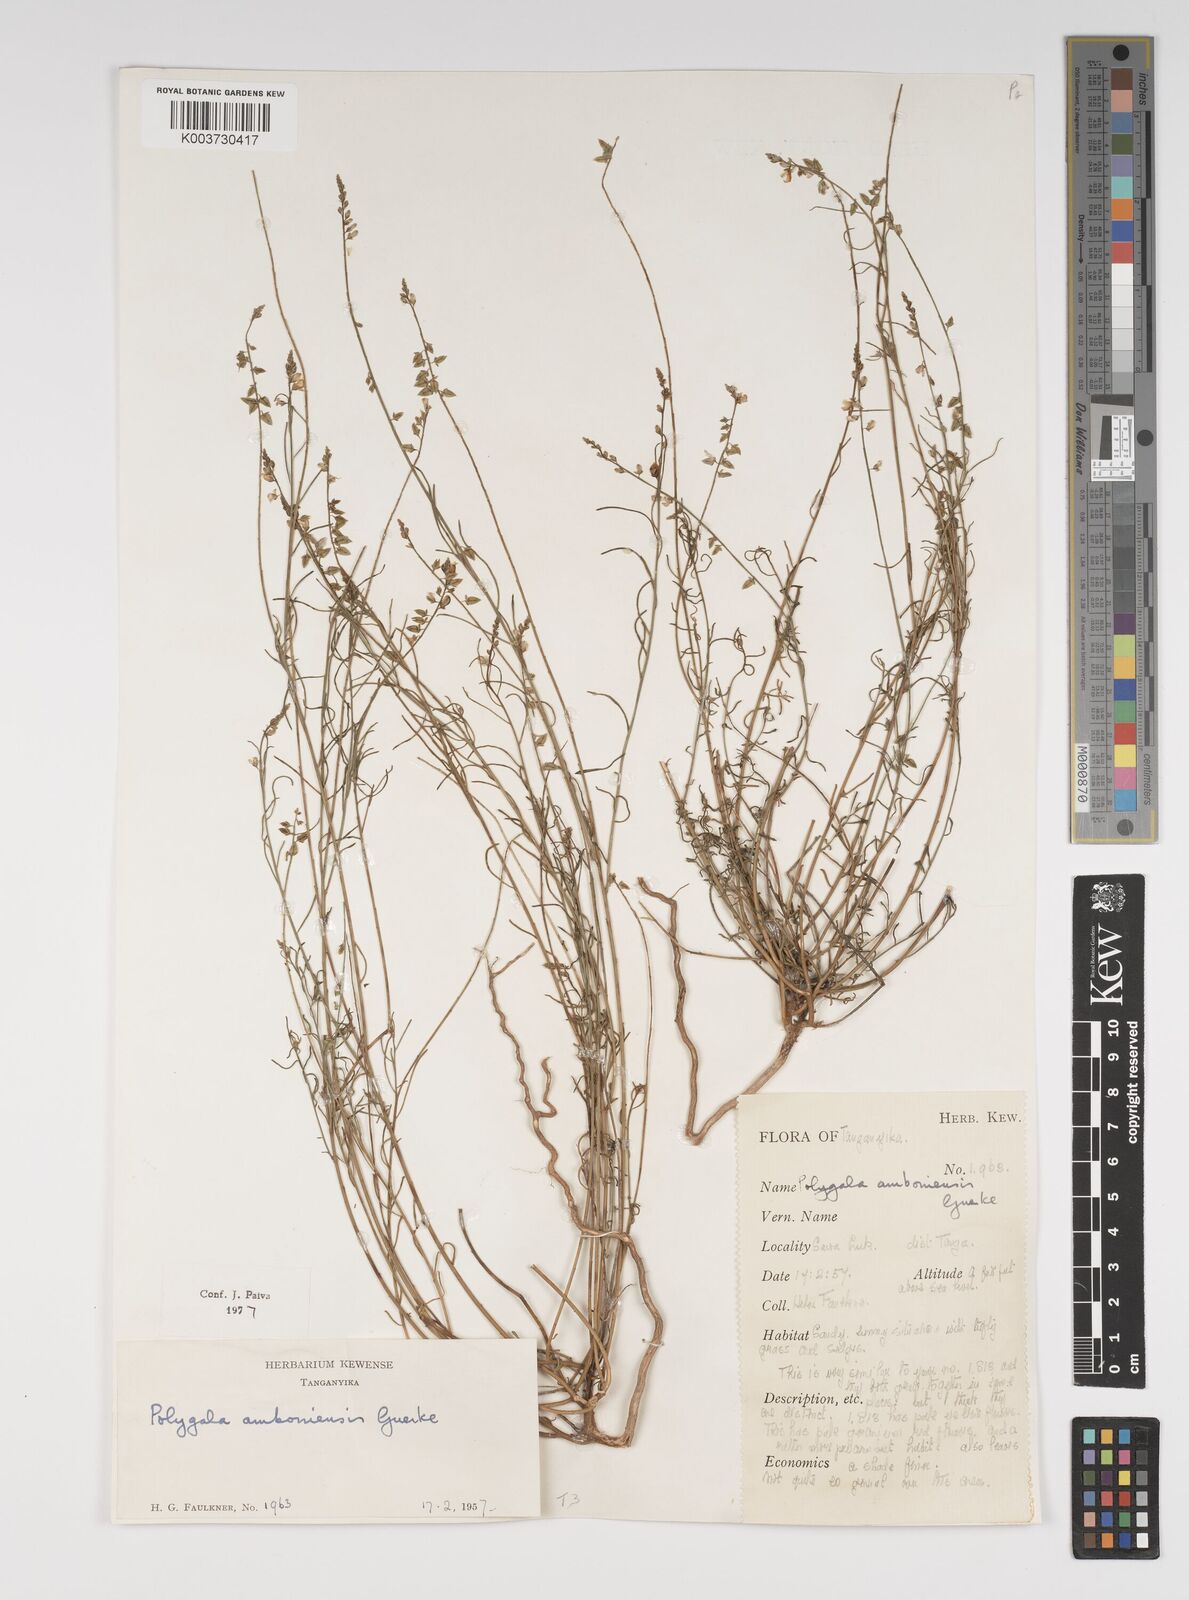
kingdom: Plantae
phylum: Tracheophyta
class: Magnoliopsida
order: Fabales
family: Polygalaceae
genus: Polygala
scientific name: Polygala amboniensis
